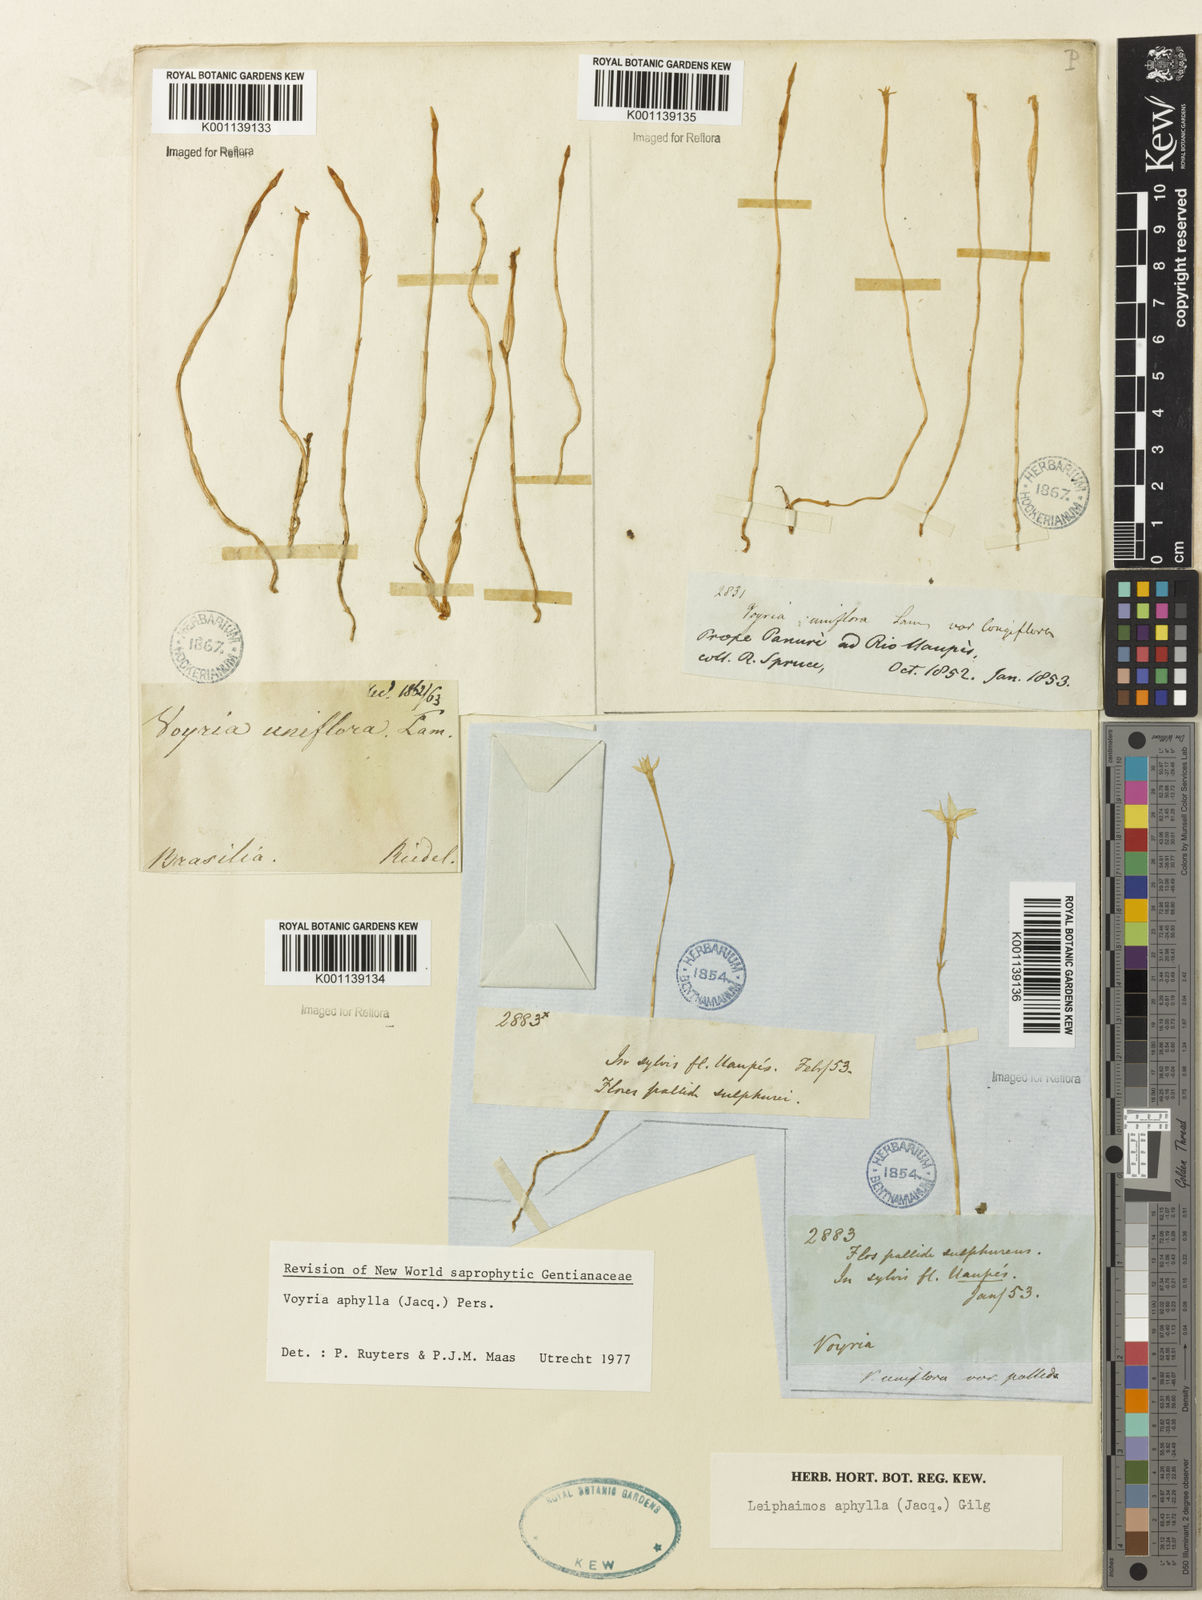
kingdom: Plantae
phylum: Tracheophyta
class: Magnoliopsida
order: Gentianales
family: Gentianaceae
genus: Voyria
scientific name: Voyria aphylla
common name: Leafless ghost plant
